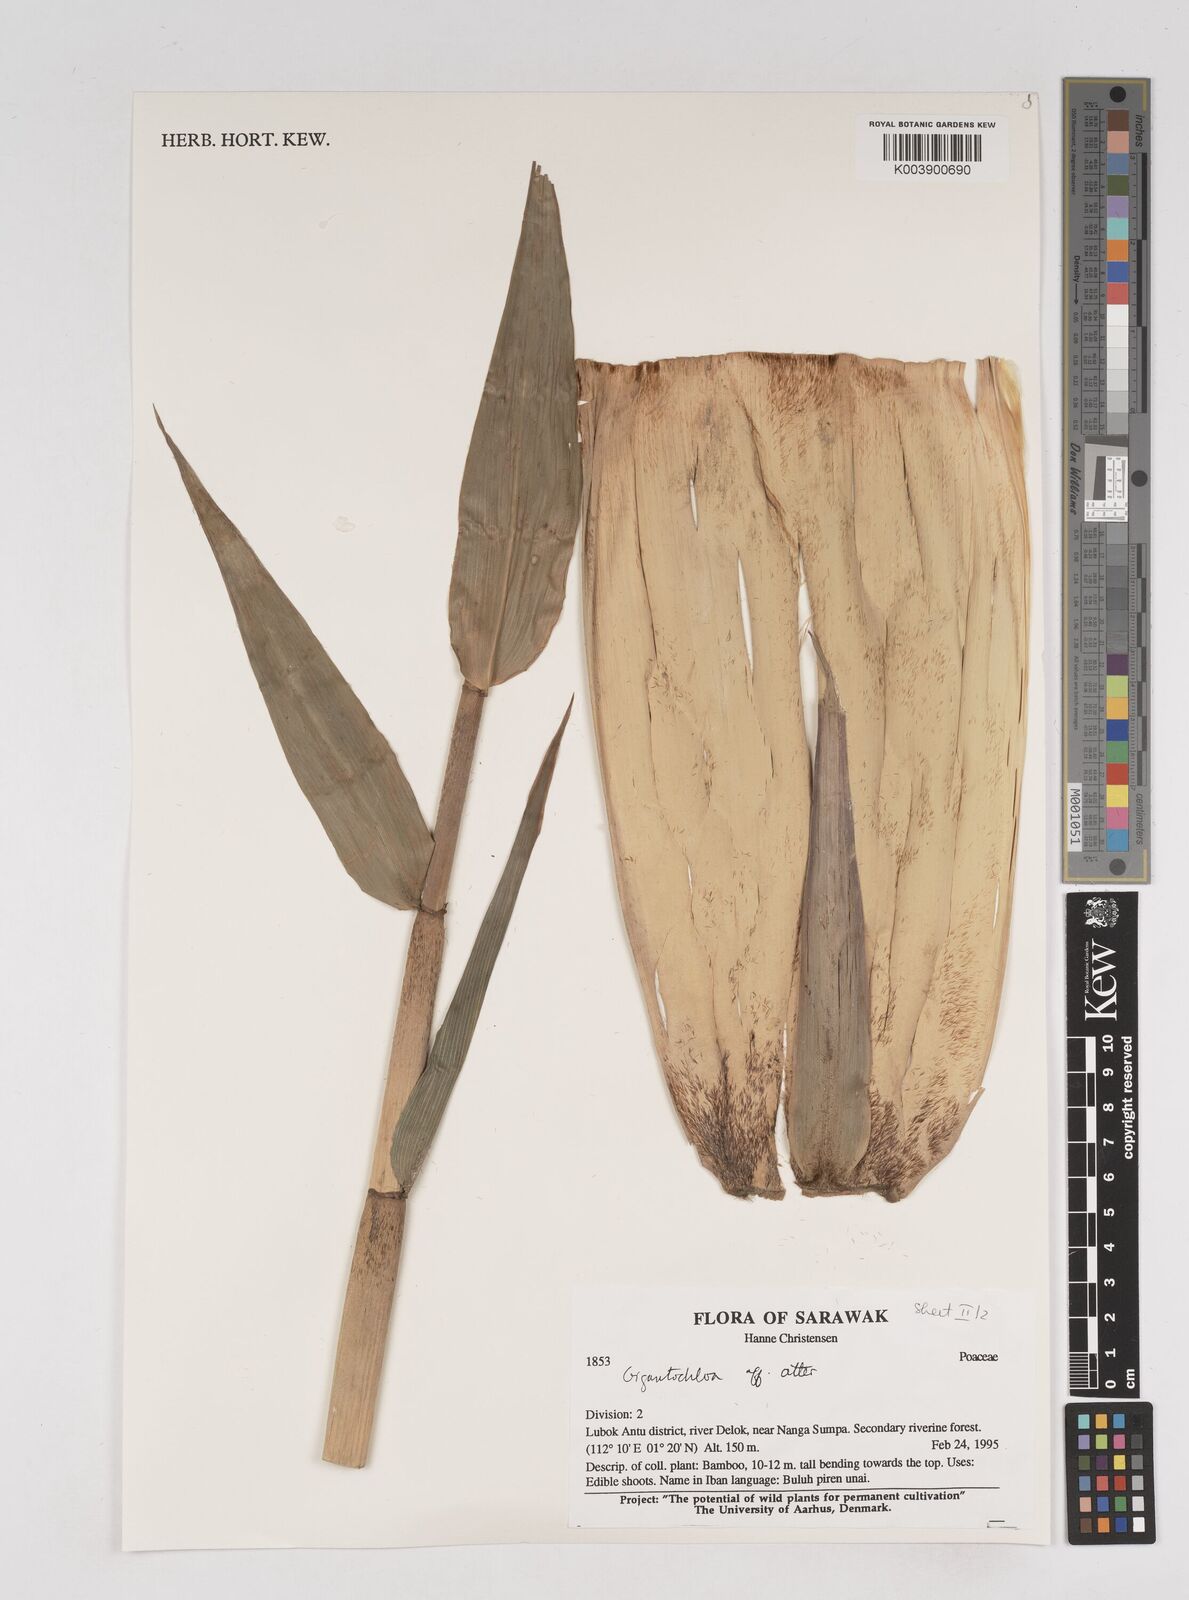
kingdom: Plantae
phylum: Tracheophyta
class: Liliopsida
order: Poales
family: Poaceae
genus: Gigantochloa
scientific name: Gigantochloa
